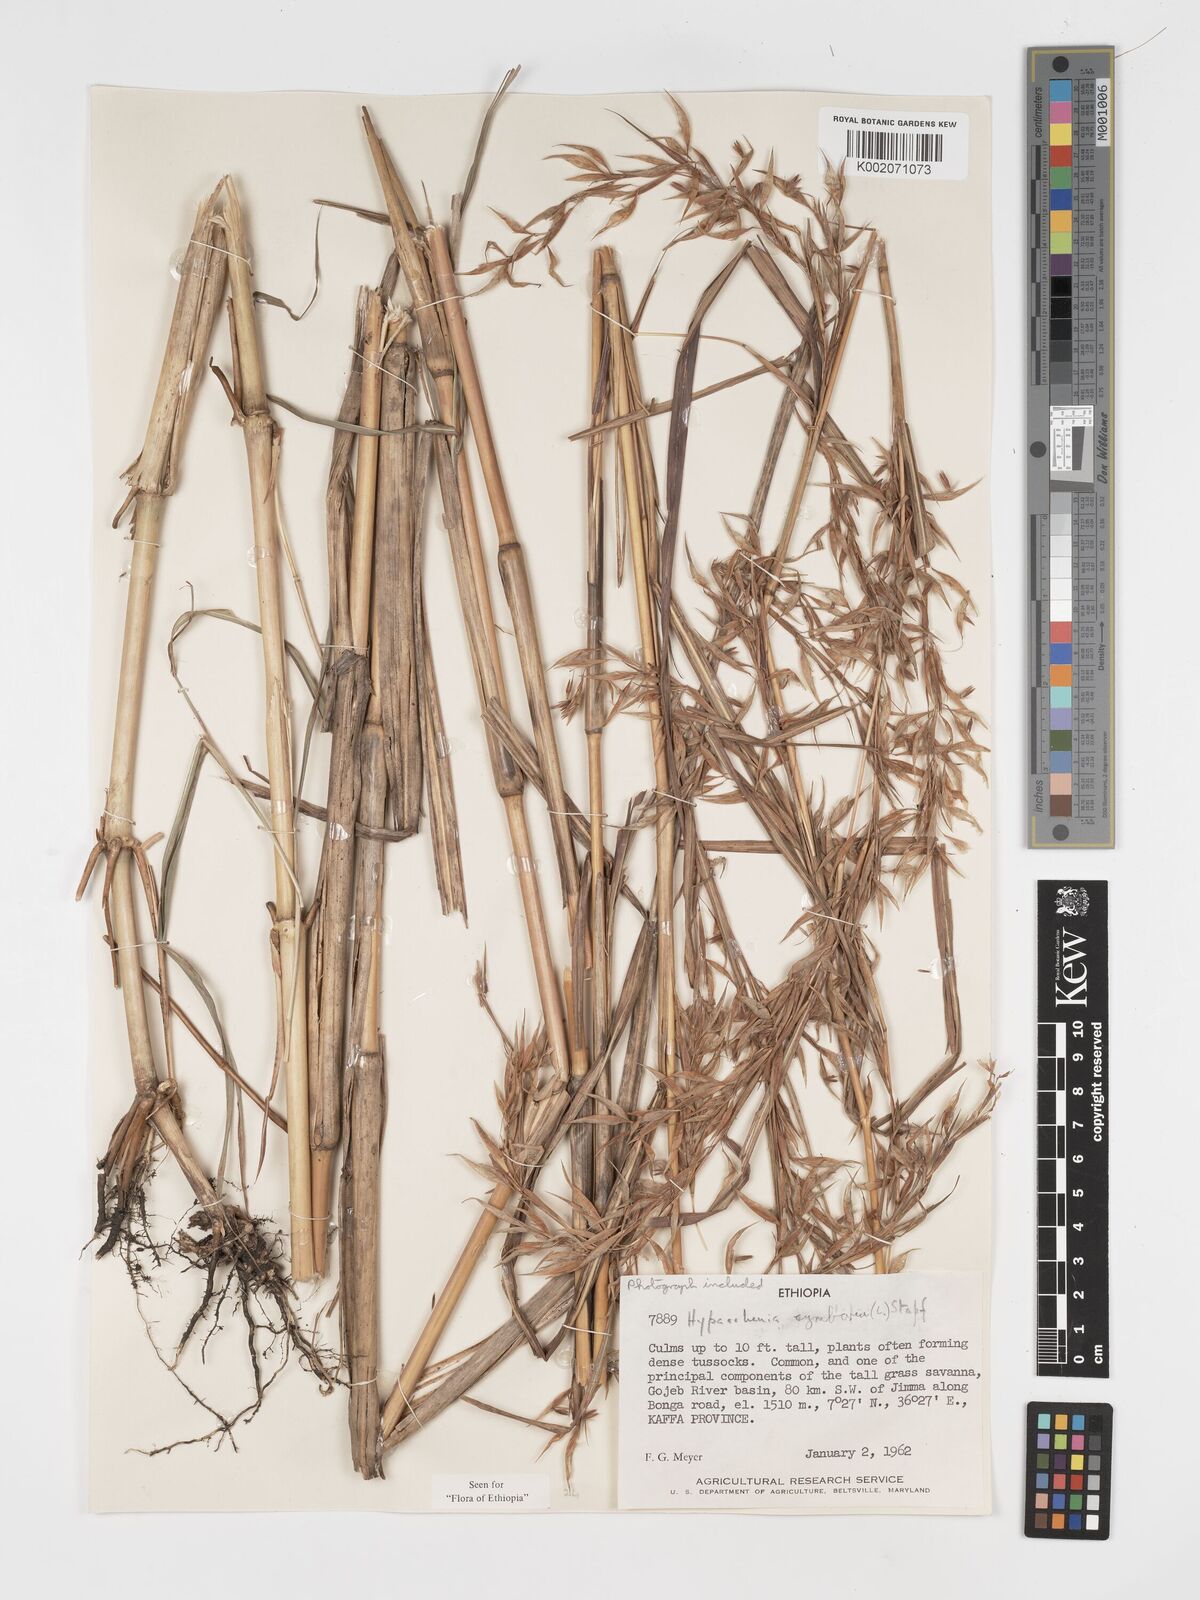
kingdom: Plantae
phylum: Tracheophyta
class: Liliopsida
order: Poales
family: Poaceae
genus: Hyparrhenia
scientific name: Hyparrhenia cymbaria
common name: Boat thatching grass
